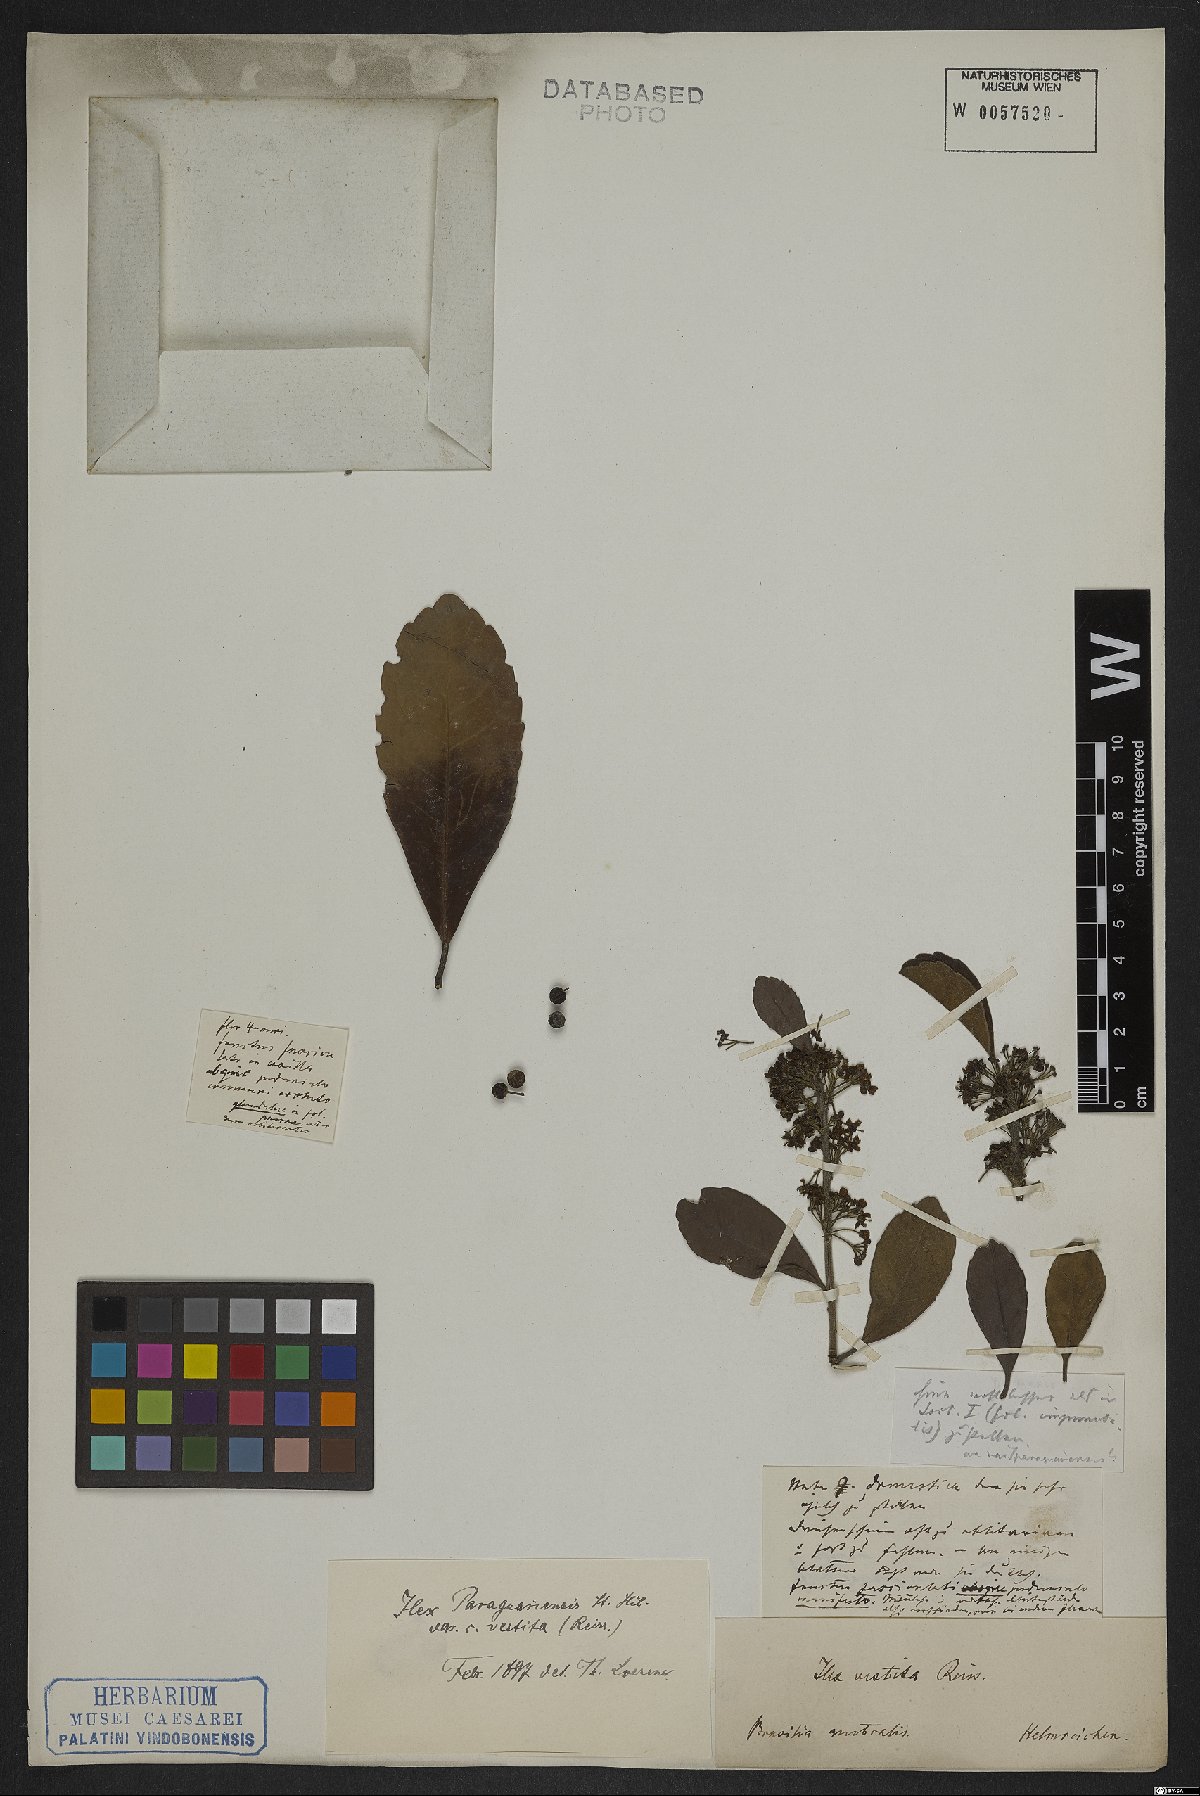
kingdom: Plantae
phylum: Tracheophyta
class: Magnoliopsida
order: Aquifoliales
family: Aquifoliaceae
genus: Ilex
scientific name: Ilex paraguariensis
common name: Paraguay tea
